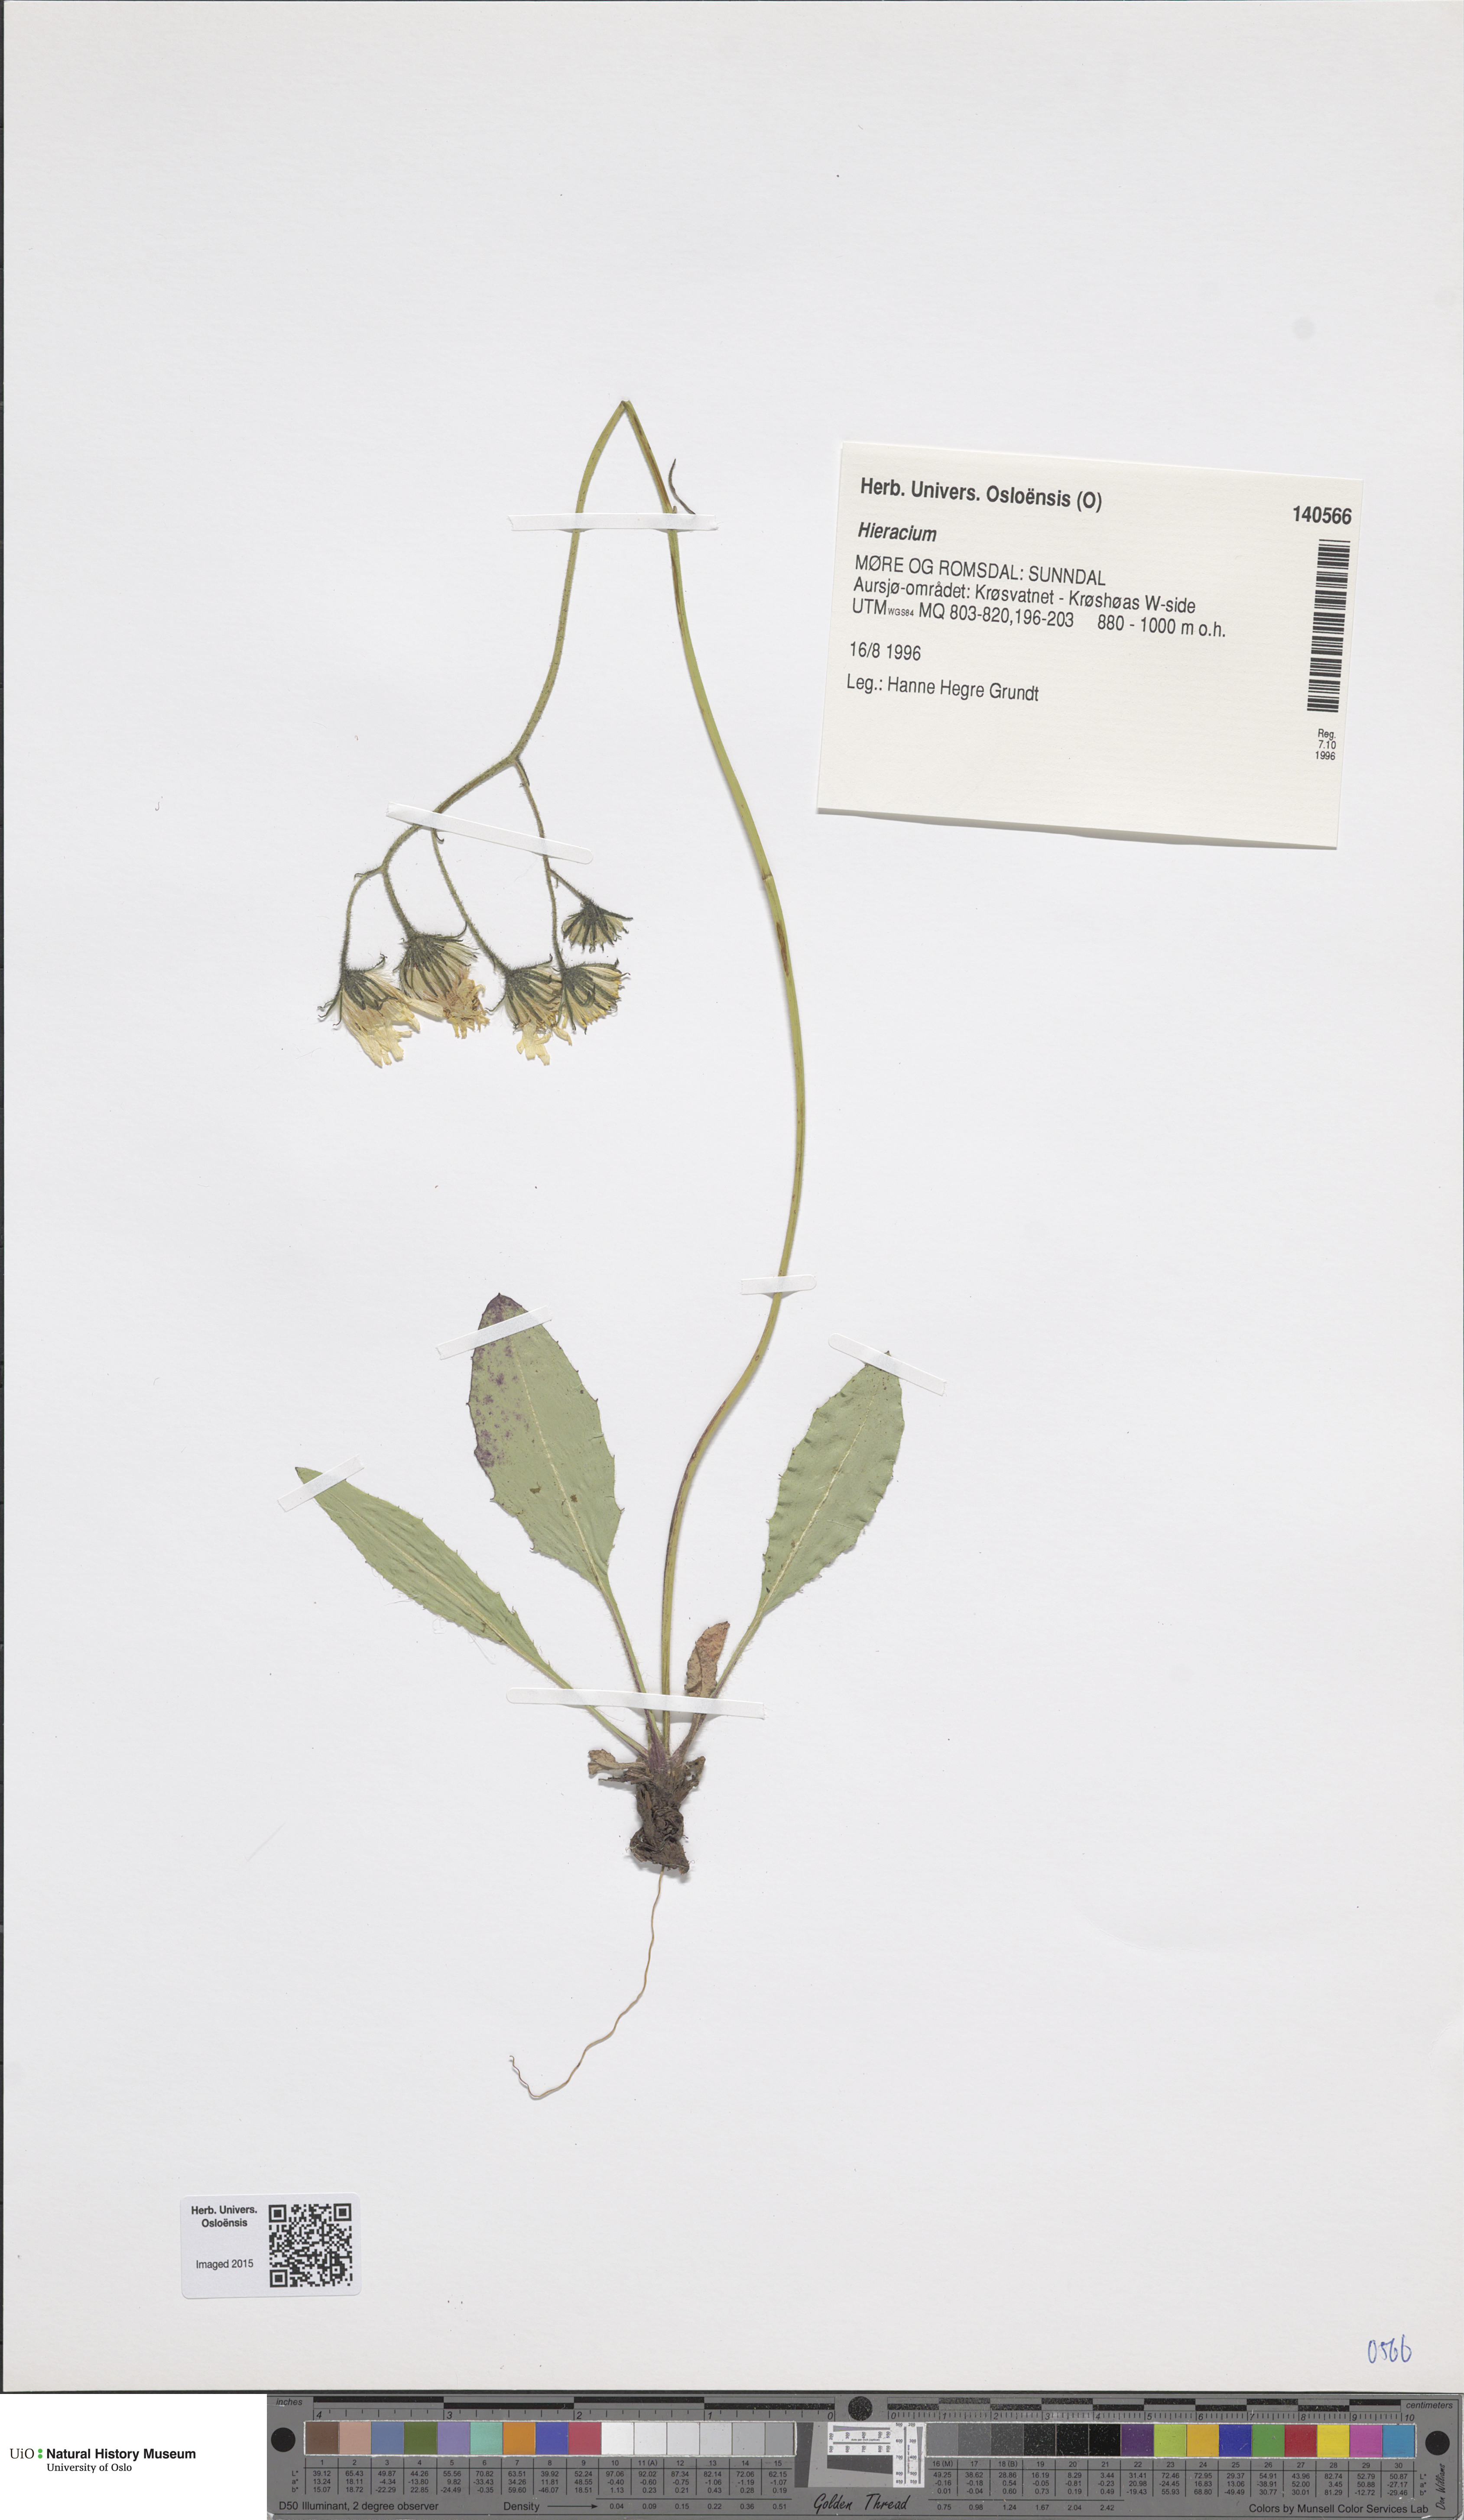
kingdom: Plantae
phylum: Tracheophyta
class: Magnoliopsida
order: Asterales
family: Asteraceae
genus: Hieracium
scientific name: Hieracium
